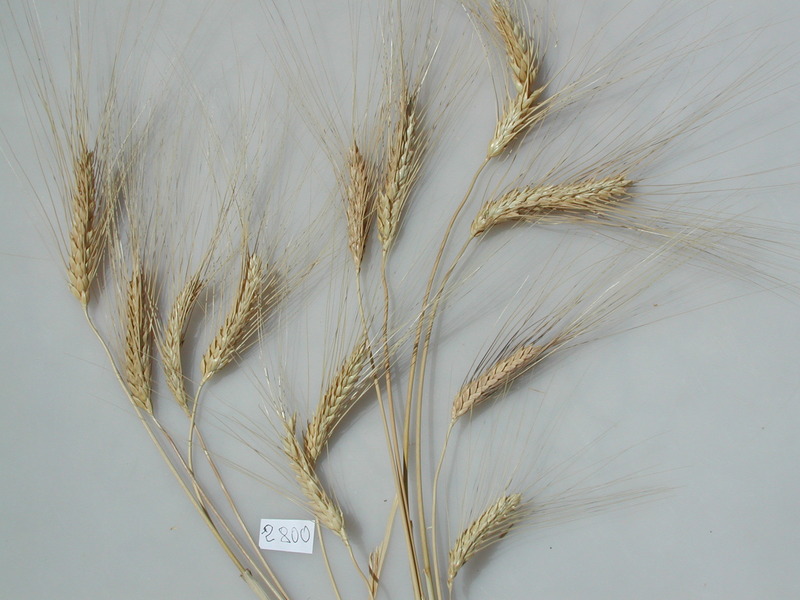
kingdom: Plantae
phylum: Tracheophyta
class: Liliopsida
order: Poales
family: Poaceae
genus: Triticum
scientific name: Triticum turgidum
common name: Wheat
